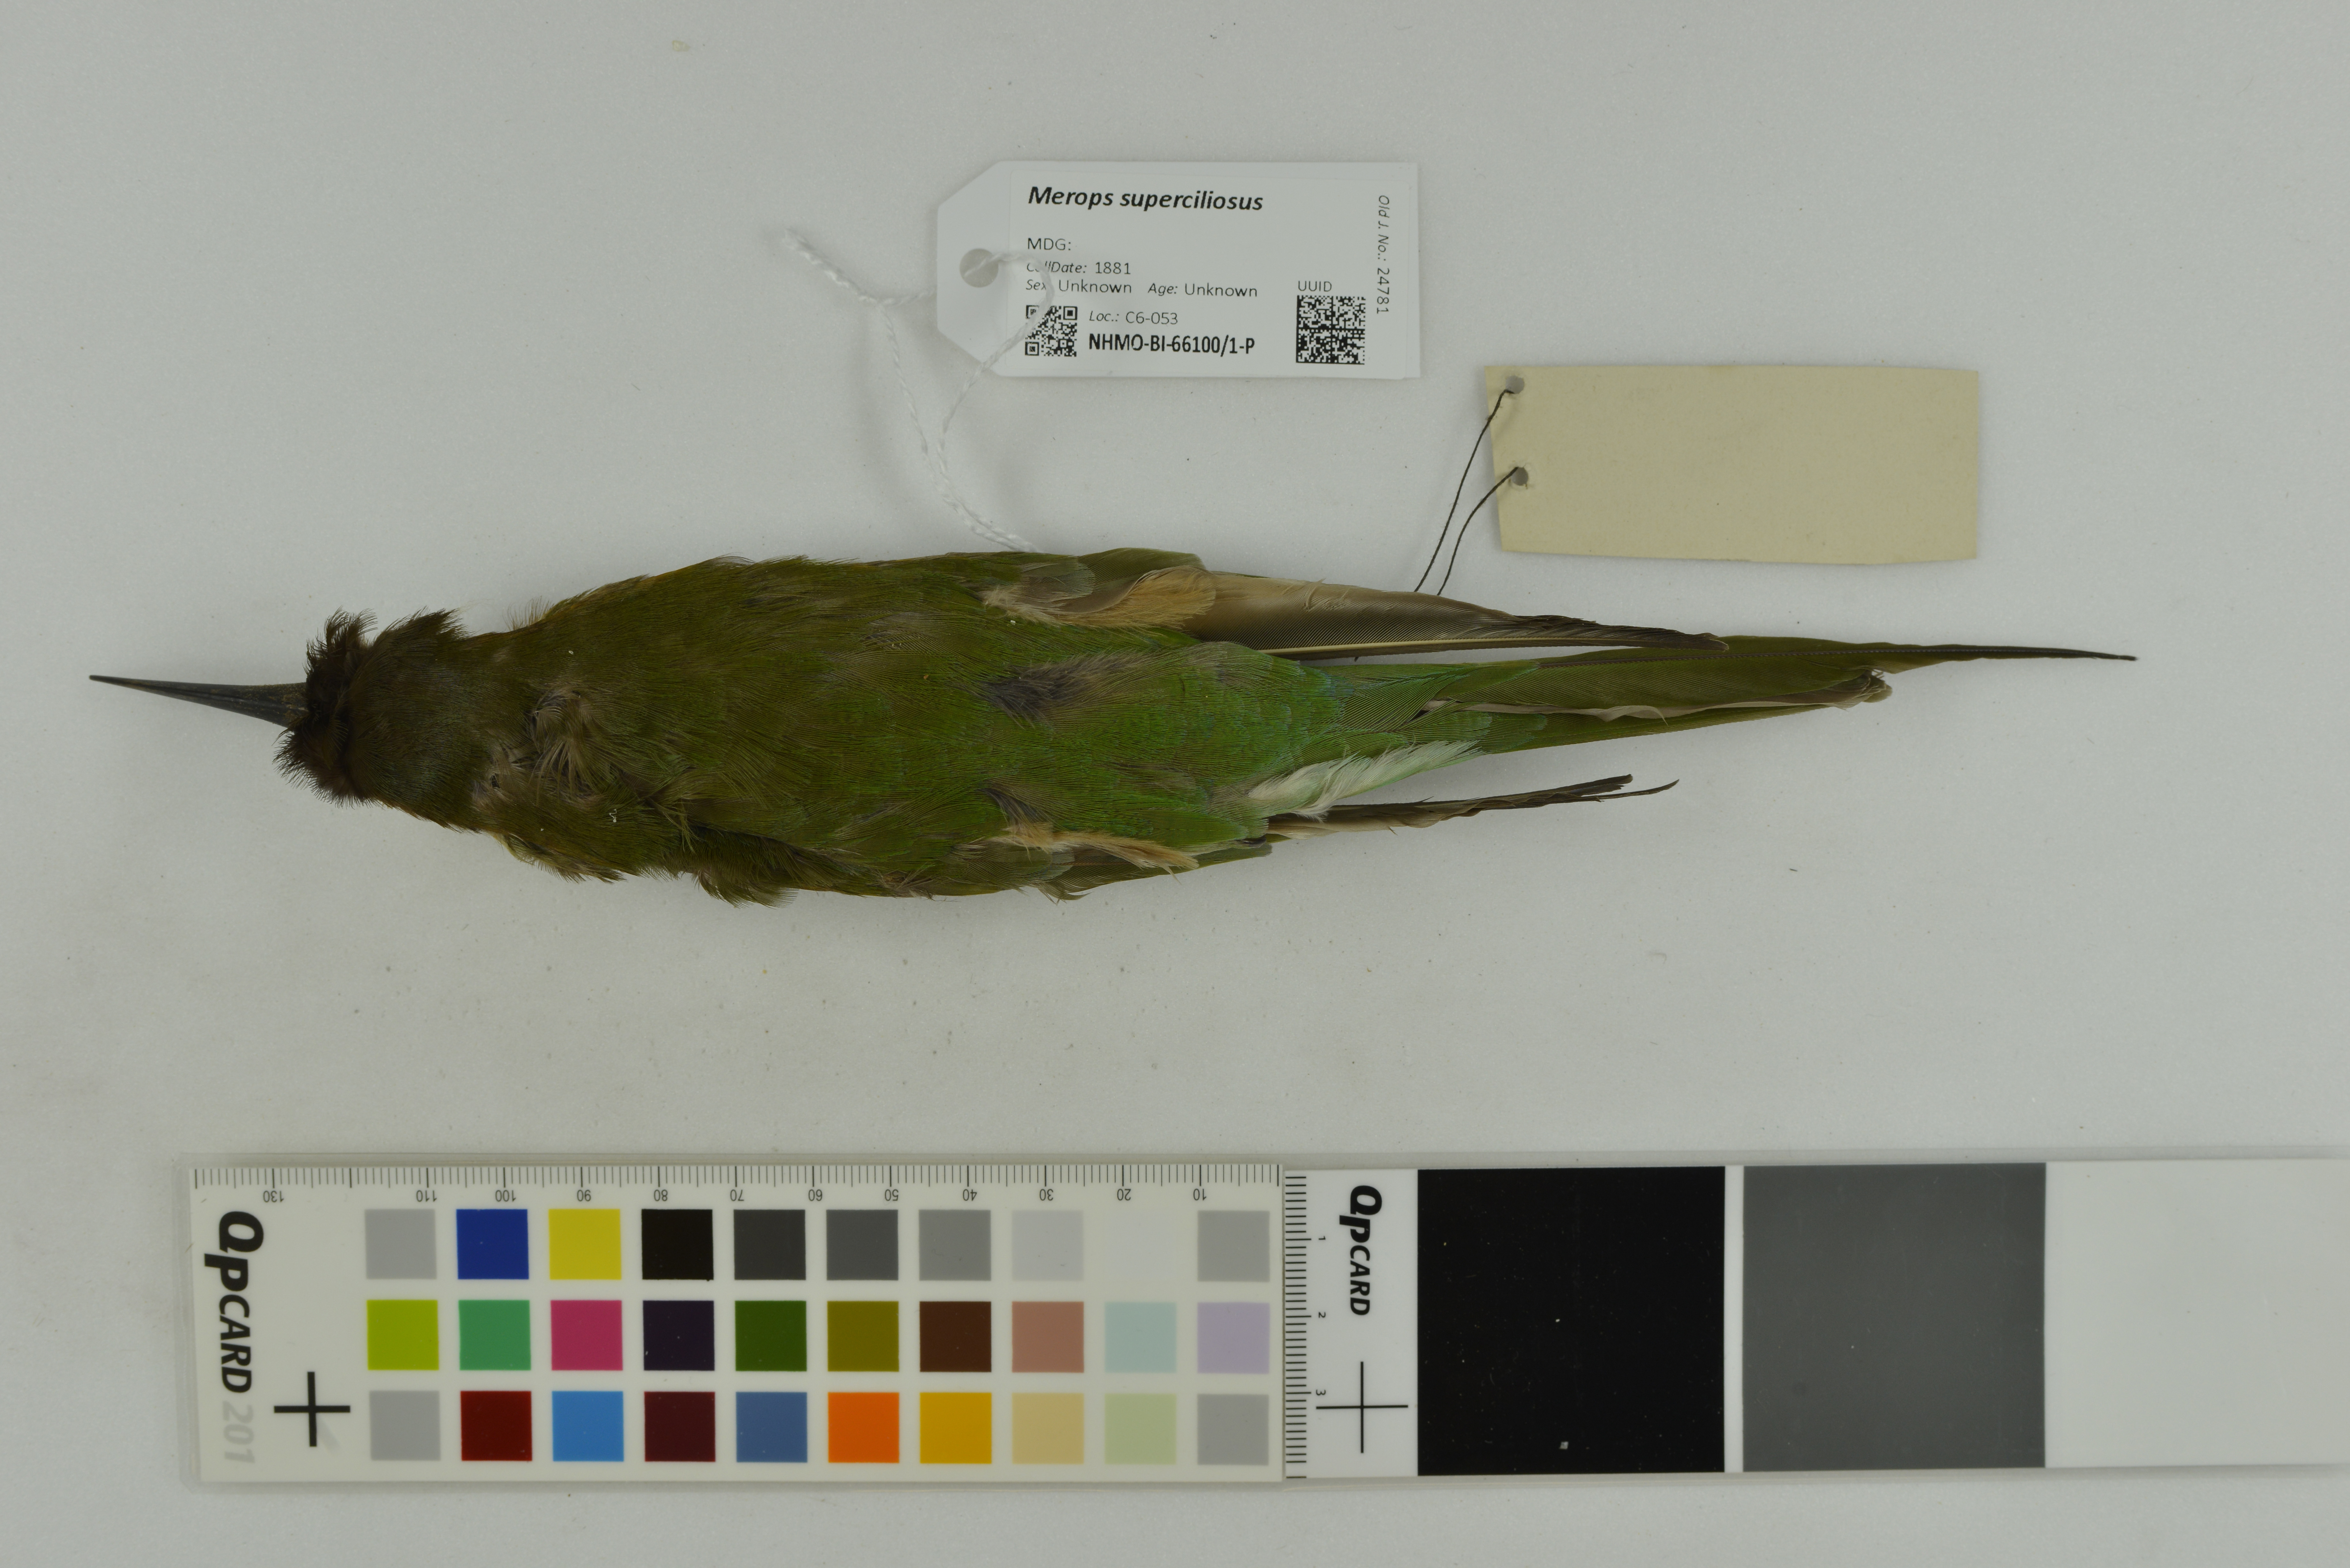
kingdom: Animalia
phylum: Chordata
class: Aves
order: Coraciiformes
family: Meropidae
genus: Merops
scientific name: Merops superciliosus
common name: Olive bee-eater
